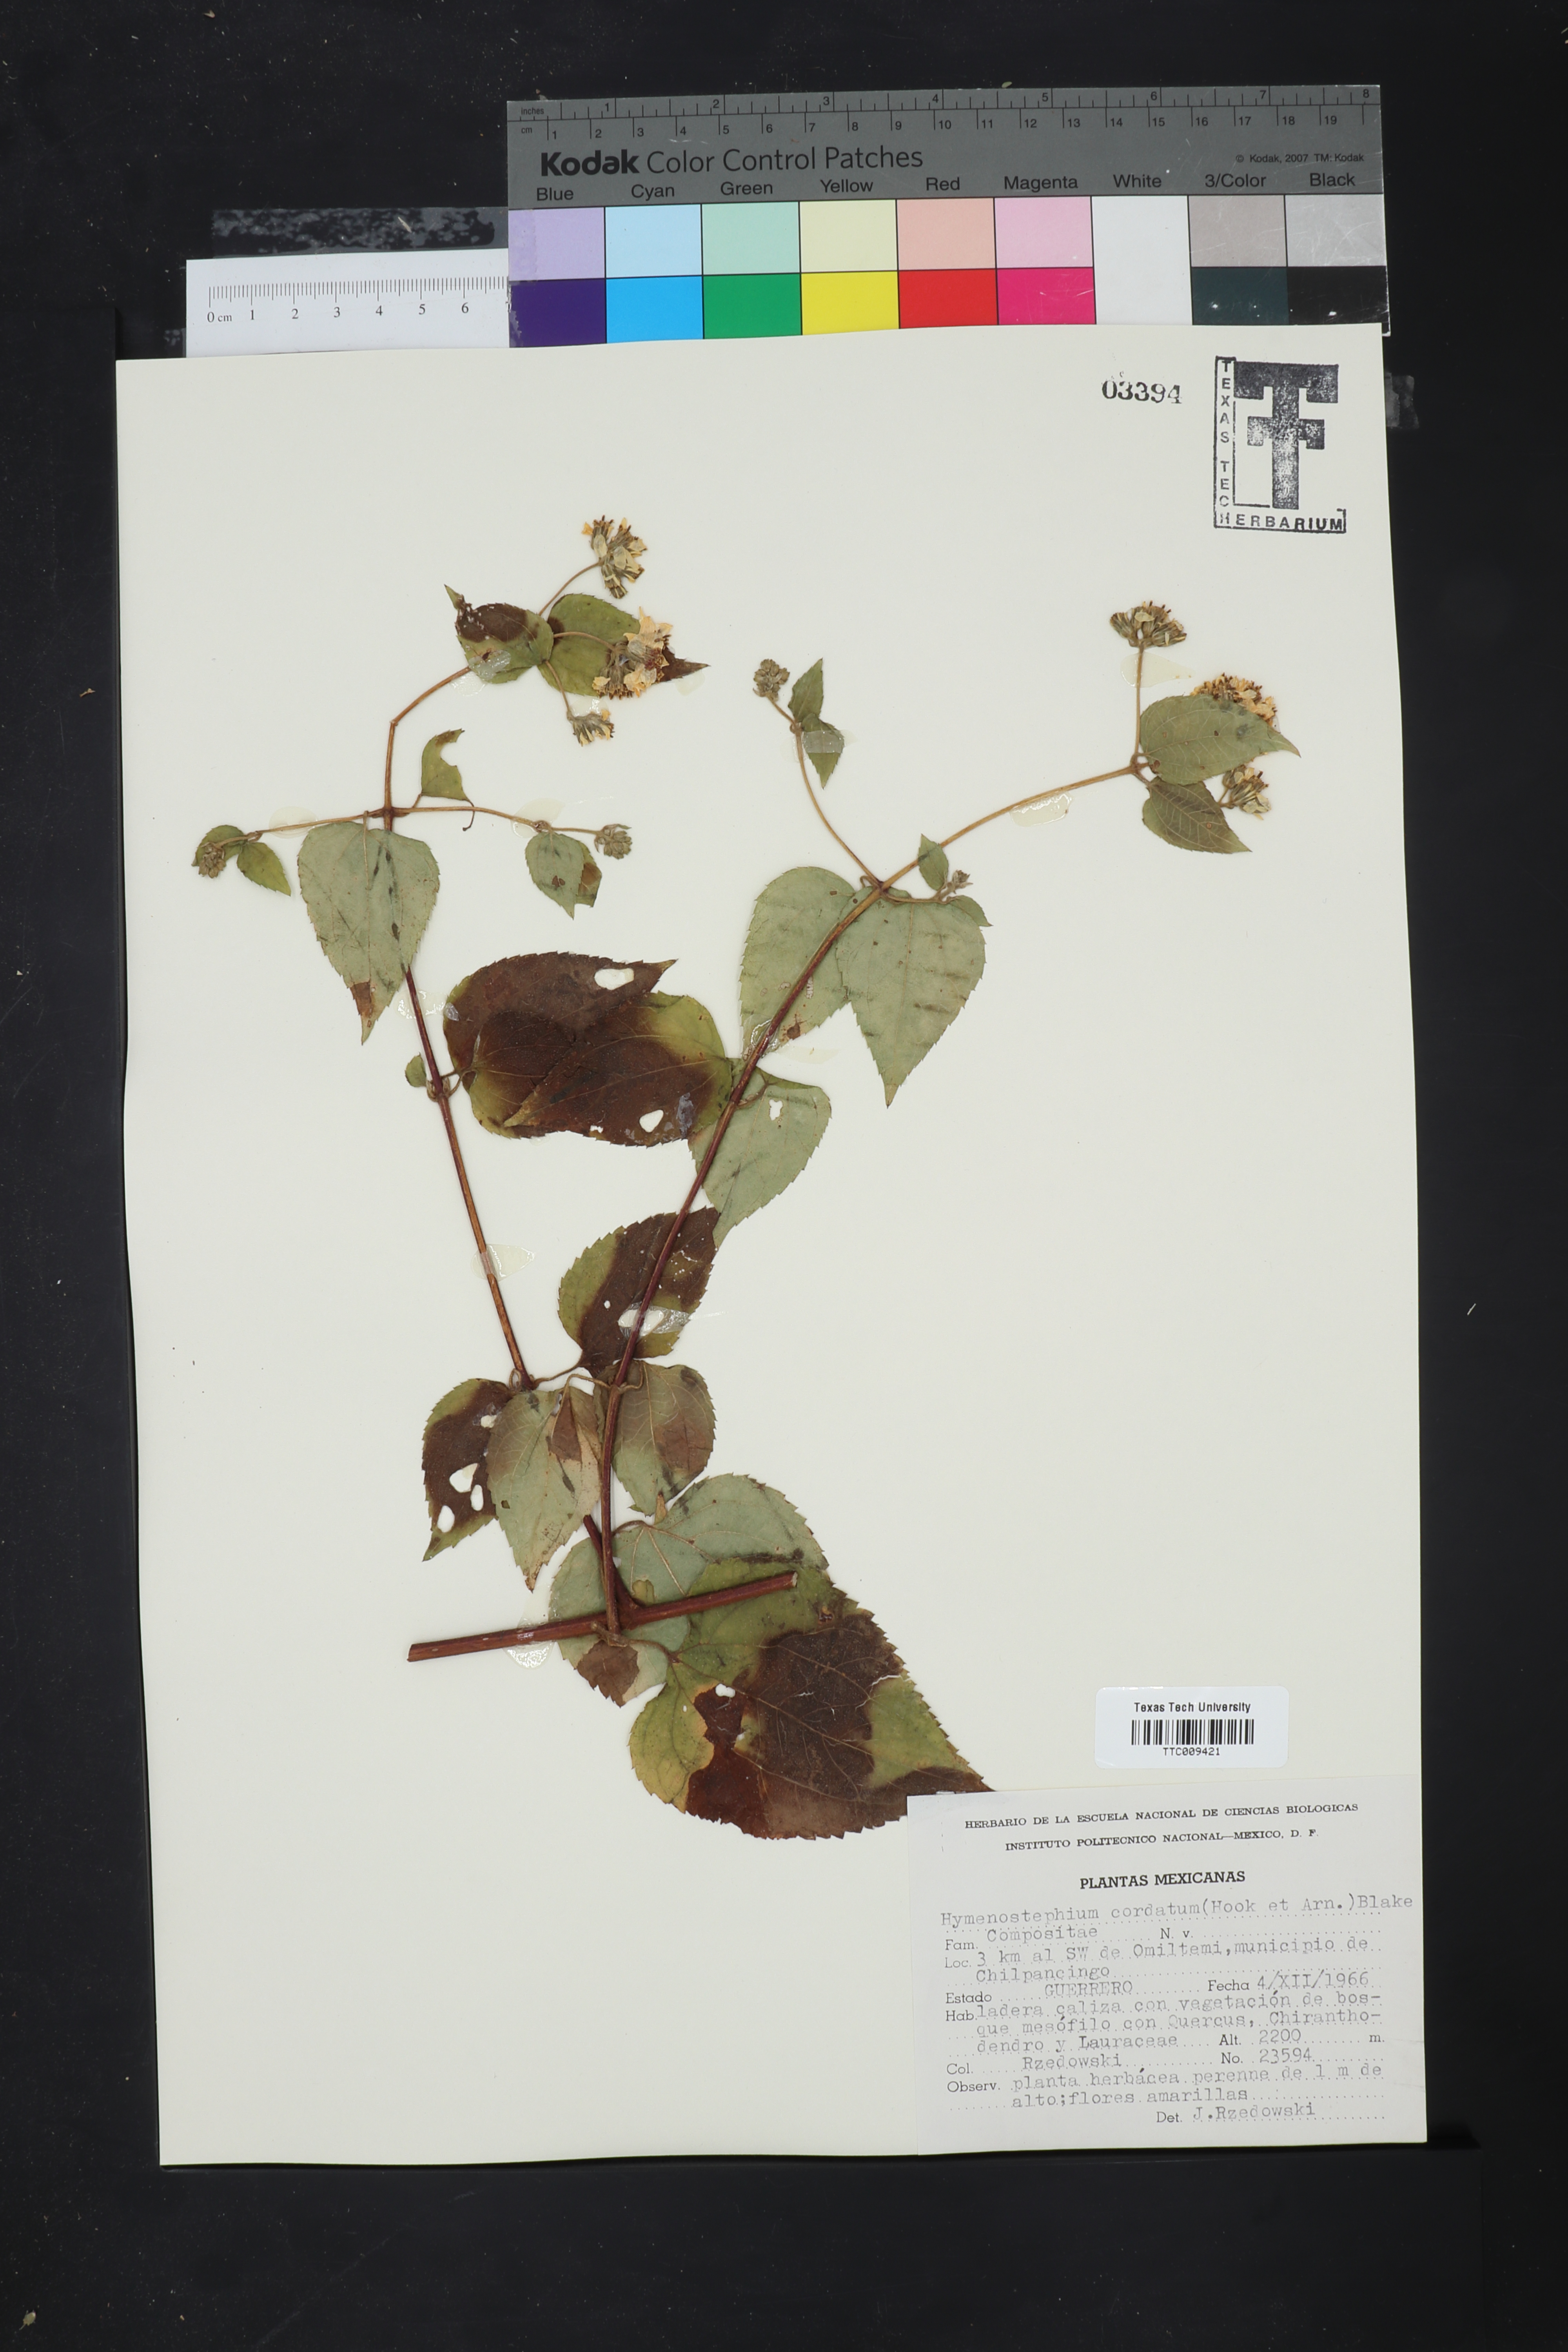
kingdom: Plantae
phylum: Tracheophyta
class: Magnoliopsida
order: Asterales
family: Asteraceae
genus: Hymenostephium
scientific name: Hymenostephium cordatum
